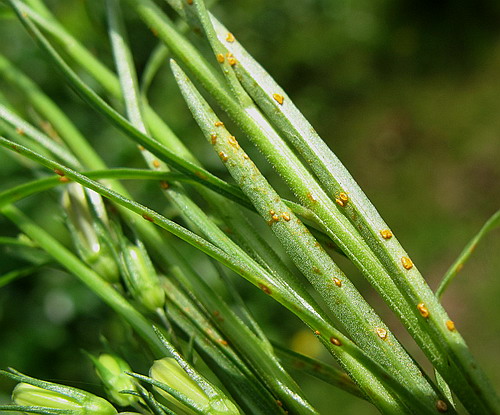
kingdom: Fungi
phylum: Basidiomycota
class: Pucciniomycetes
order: Pucciniales
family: Coleosporiaceae
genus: Coleosporium
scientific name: Coleosporium tussilaginis
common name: almindelig fyrrenålerust
